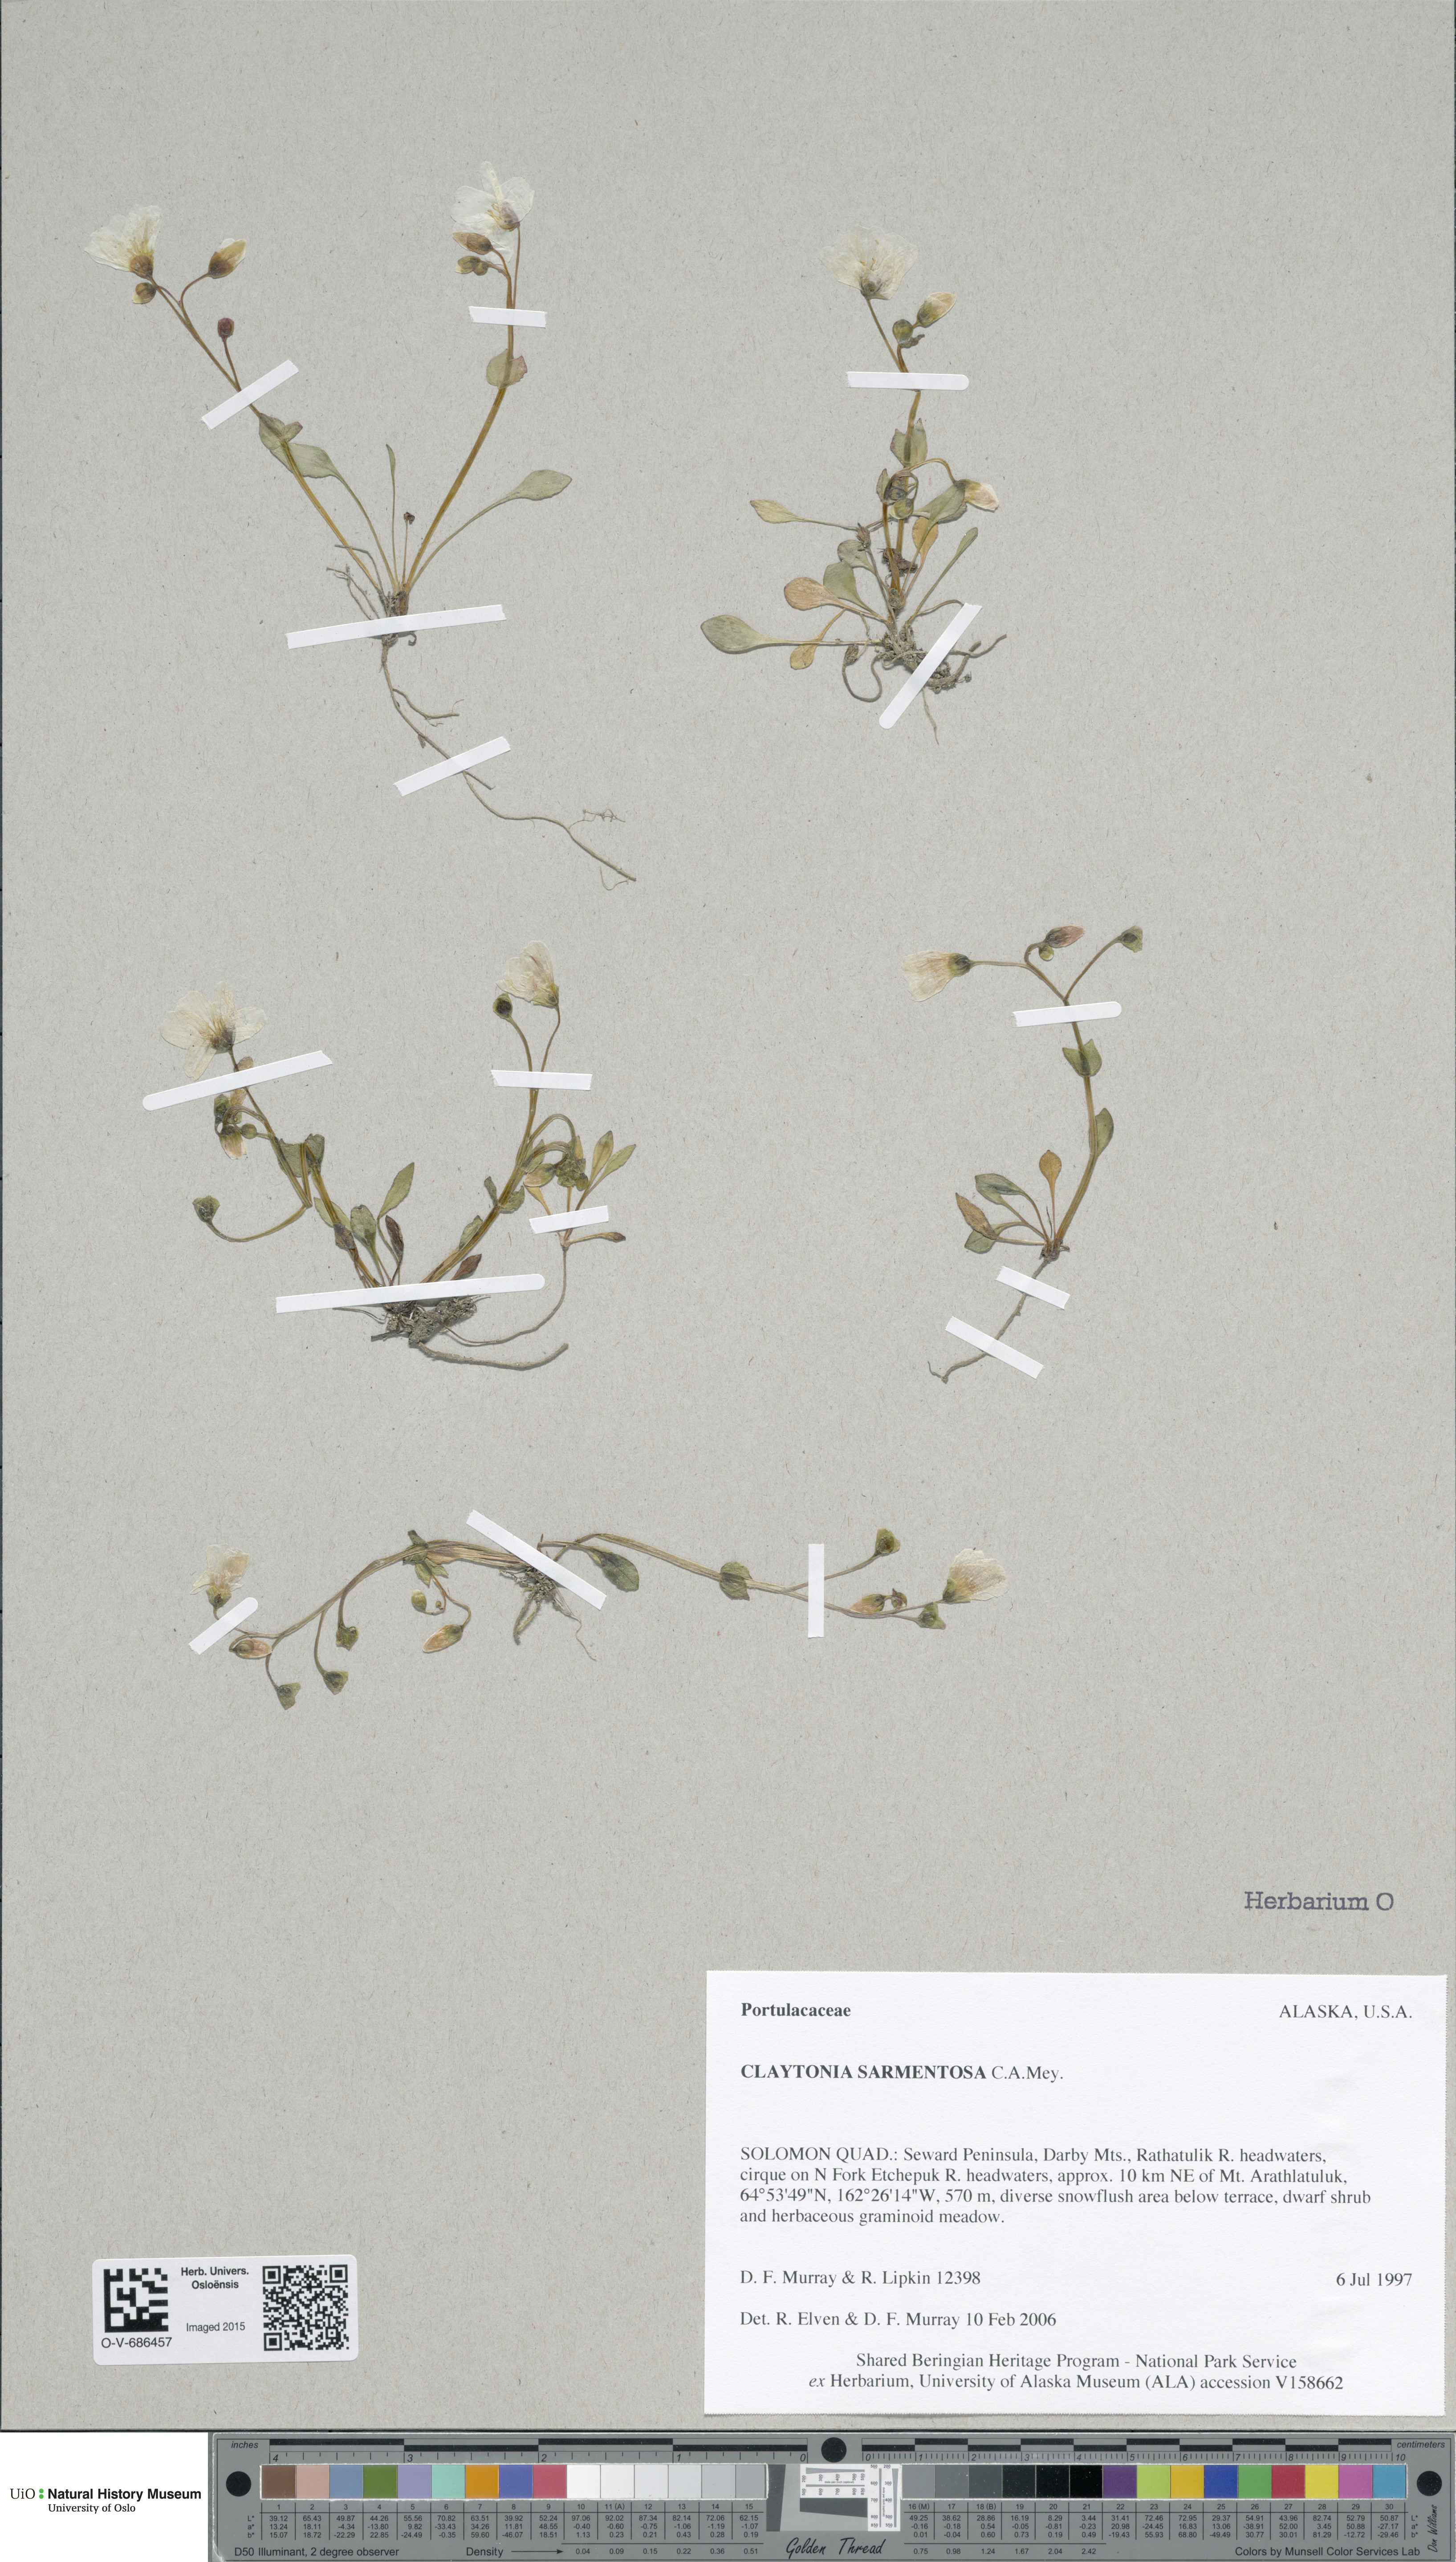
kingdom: Plantae
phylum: Tracheophyta
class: Magnoliopsida
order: Caryophyllales
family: Montiaceae
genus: Claytonia
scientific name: Claytonia sarmentosa
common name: Alaska spring beauty
